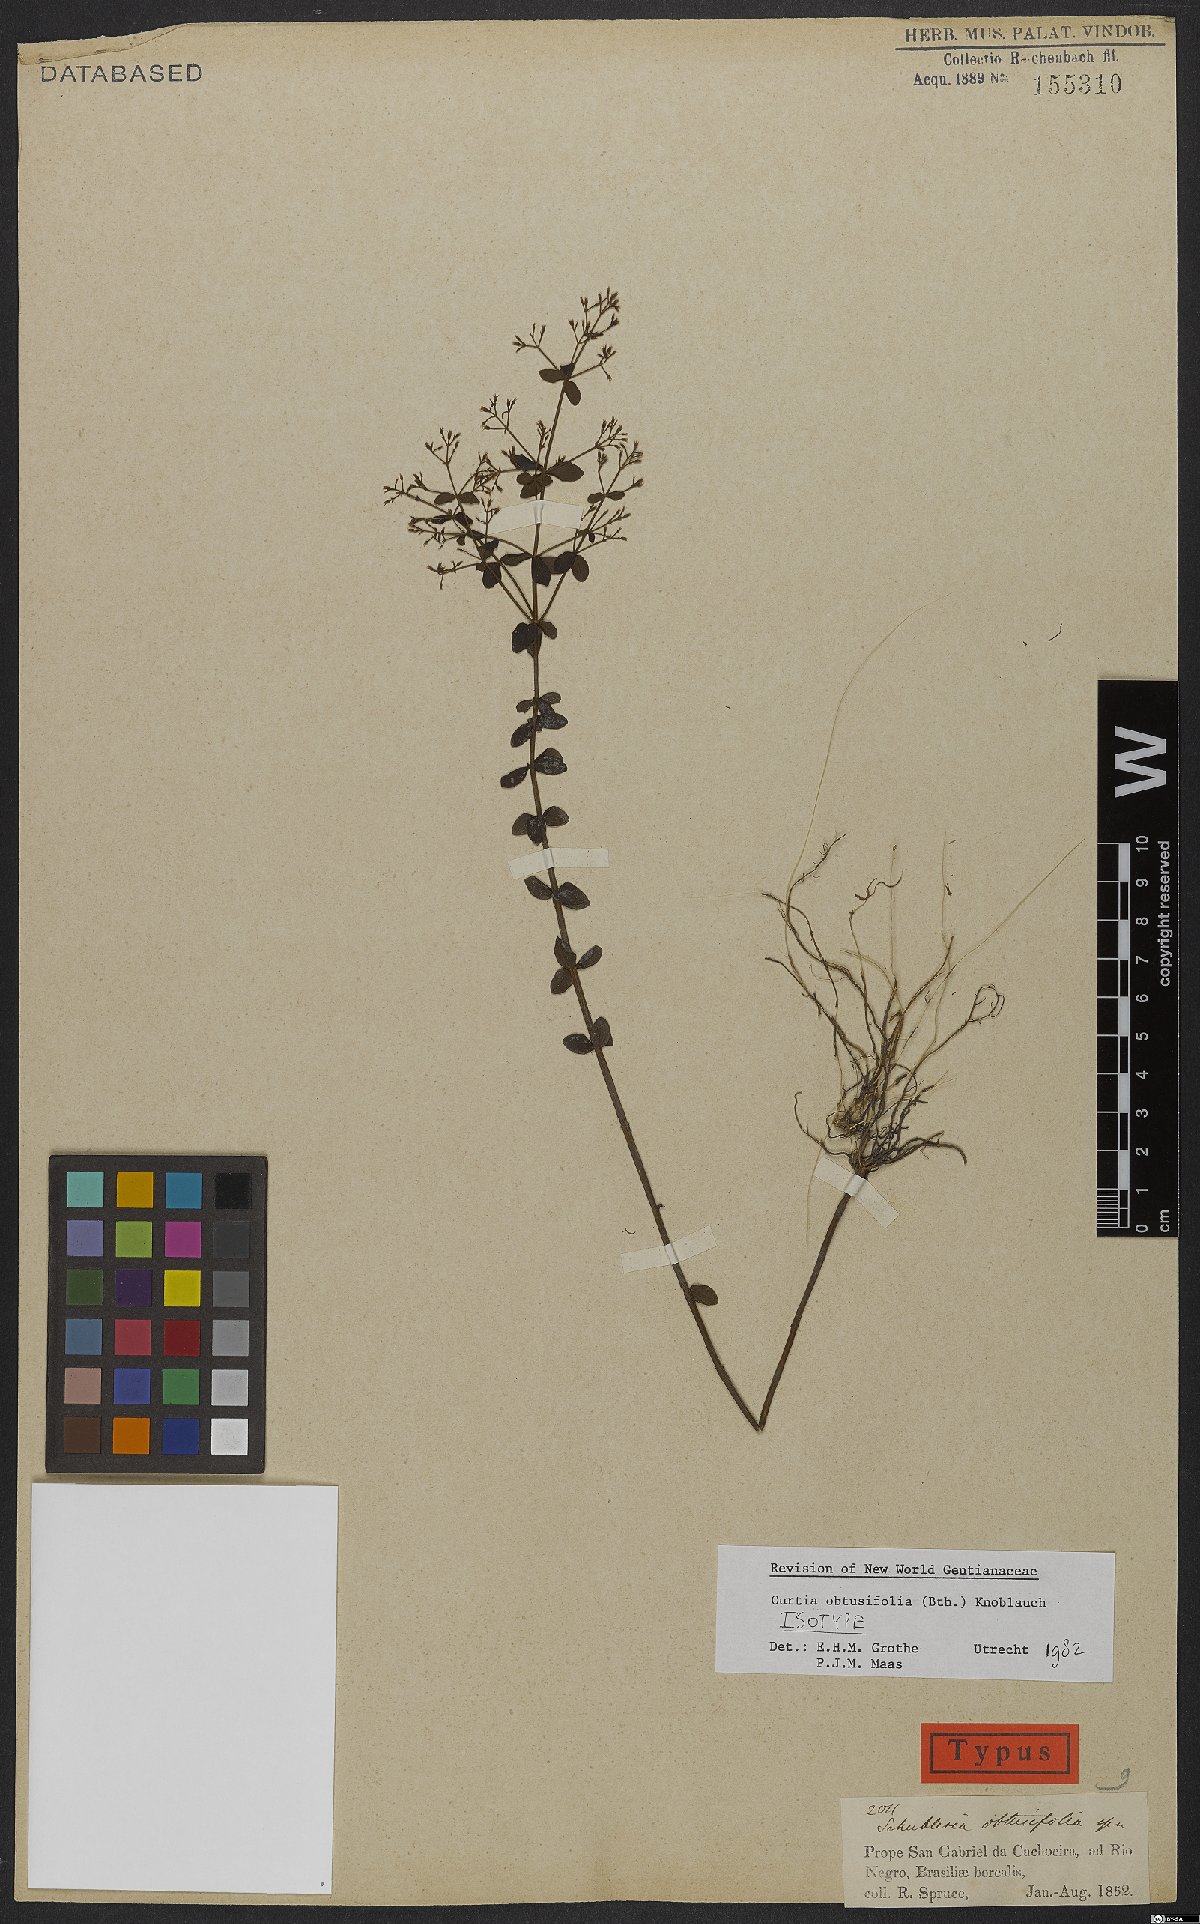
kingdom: Plantae
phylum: Tracheophyta
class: Magnoliopsida
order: Gentianales
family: Gentianaceae
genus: Curtia
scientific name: Curtia obtusifolia
